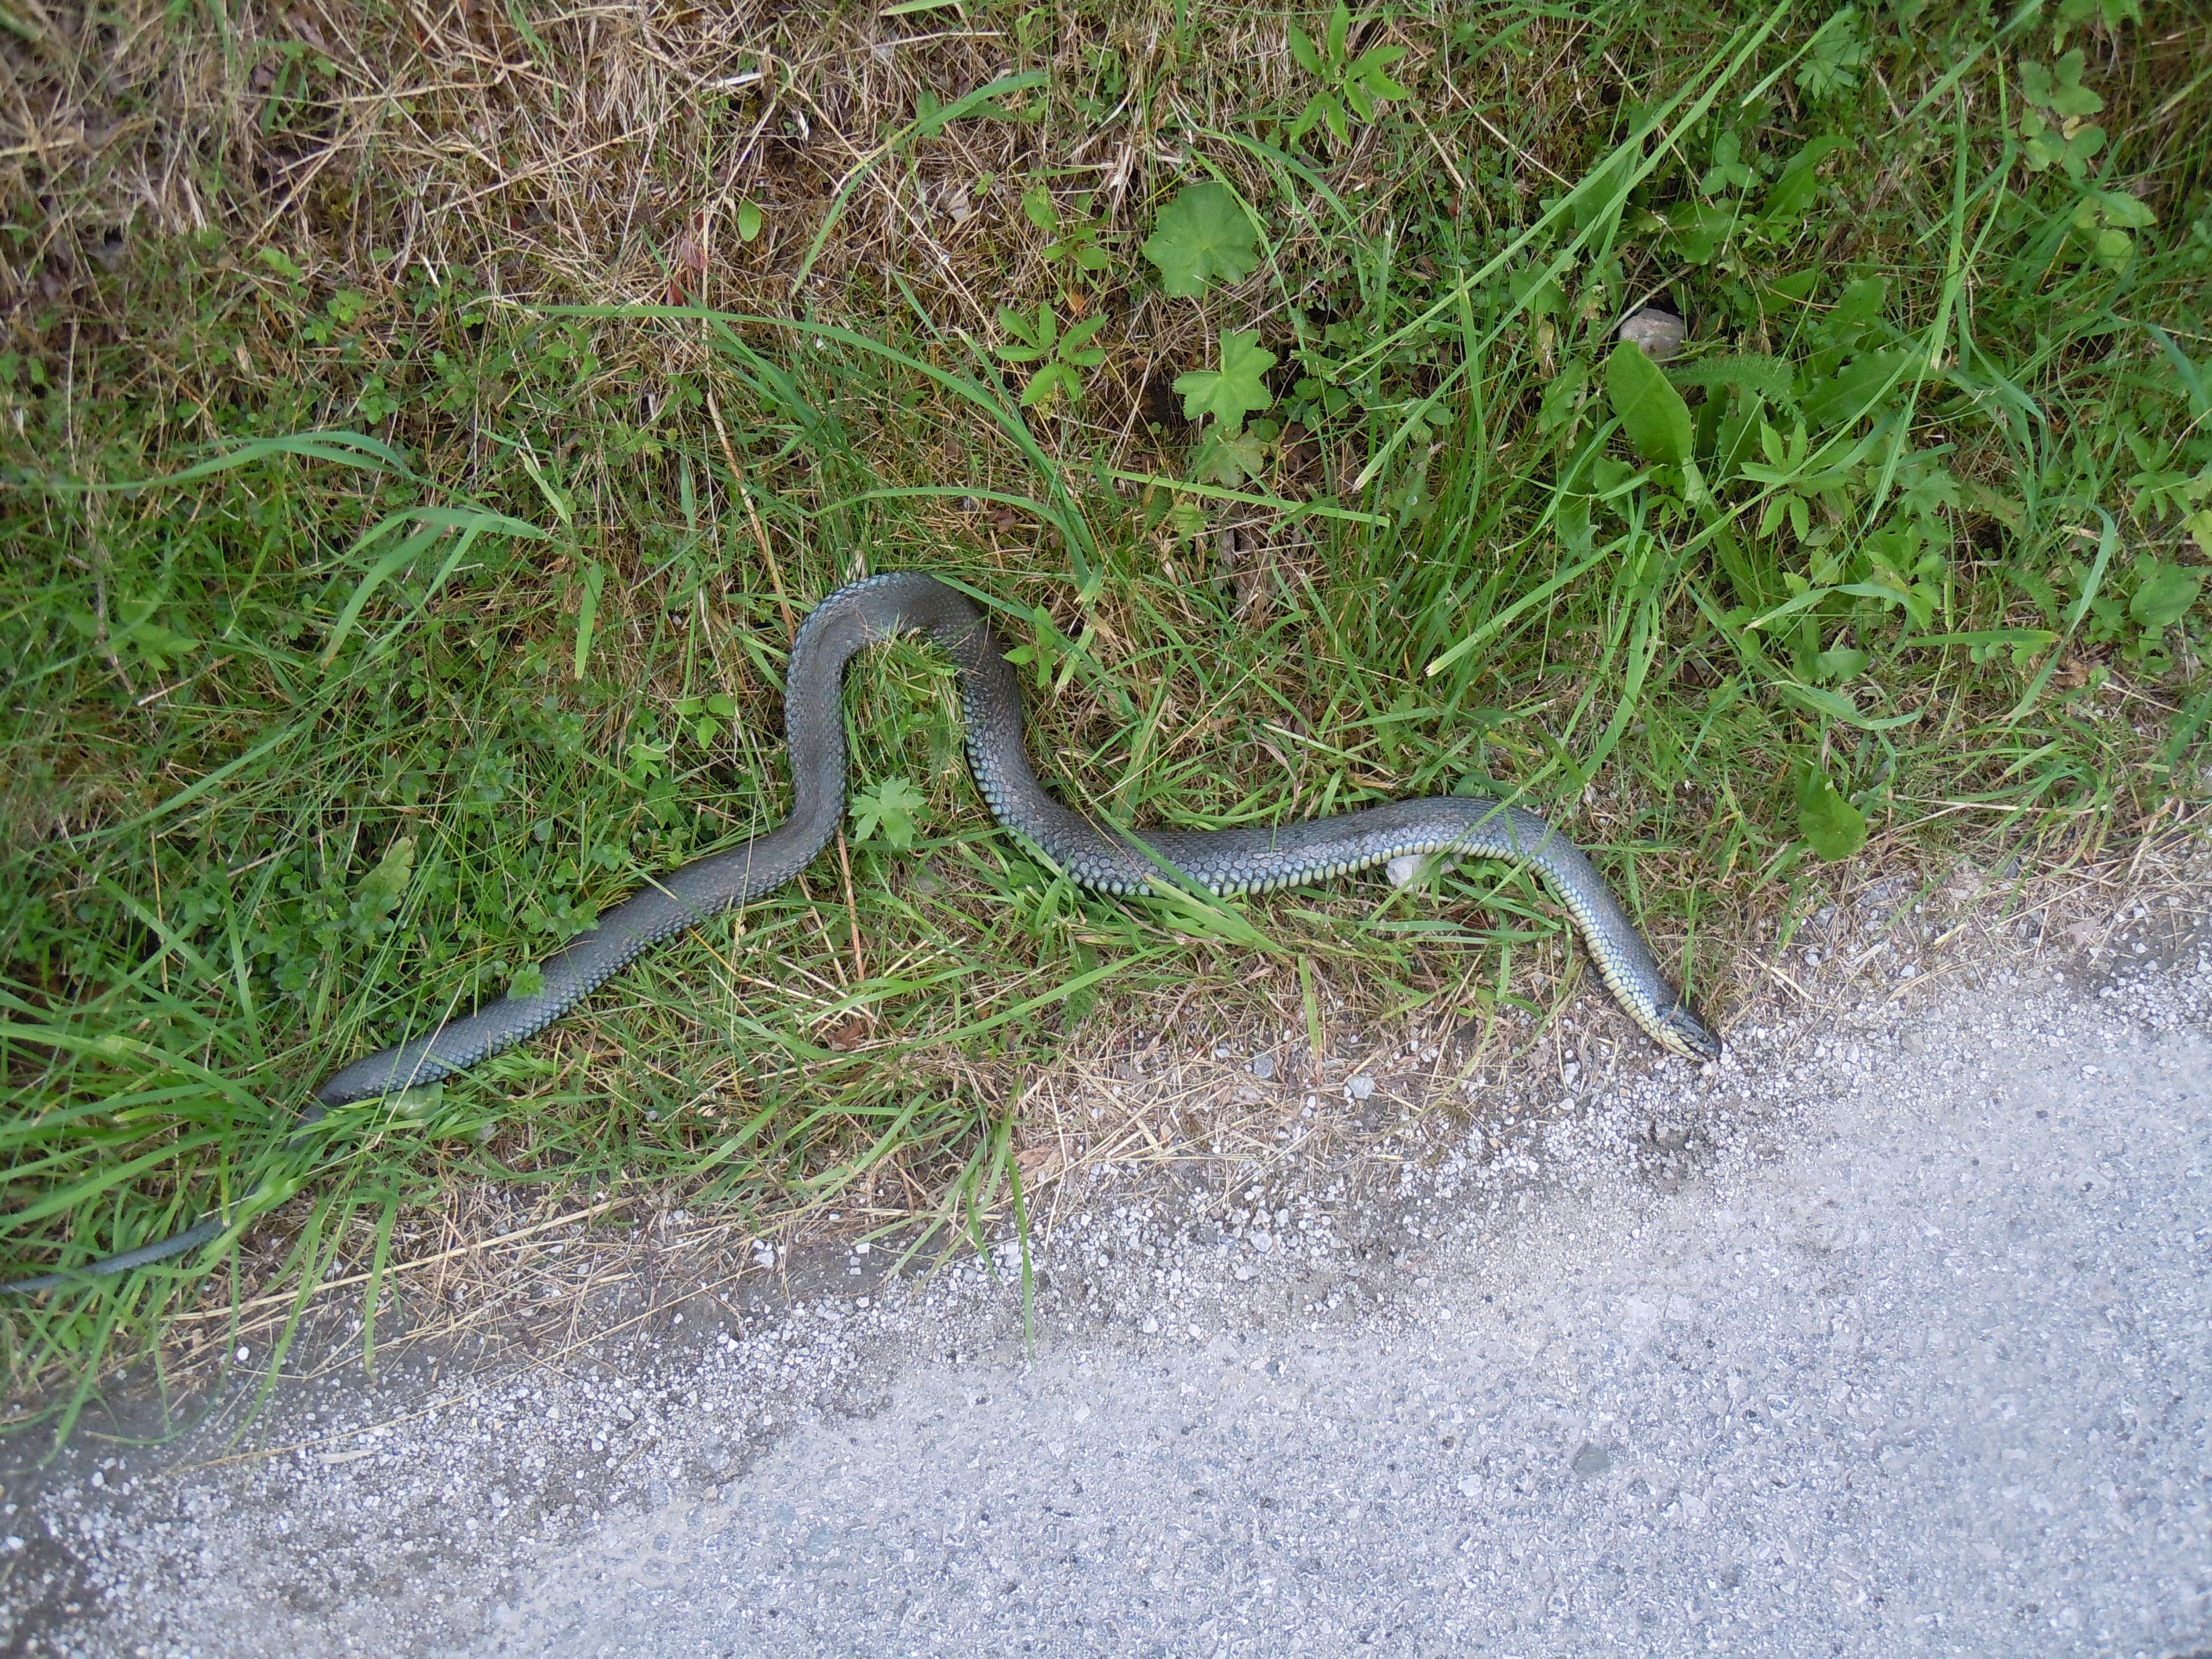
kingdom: Animalia
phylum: Chordata
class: Squamata
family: Colubridae
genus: Zamenis
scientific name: Zamenis longissimus
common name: Aesculapean snake
